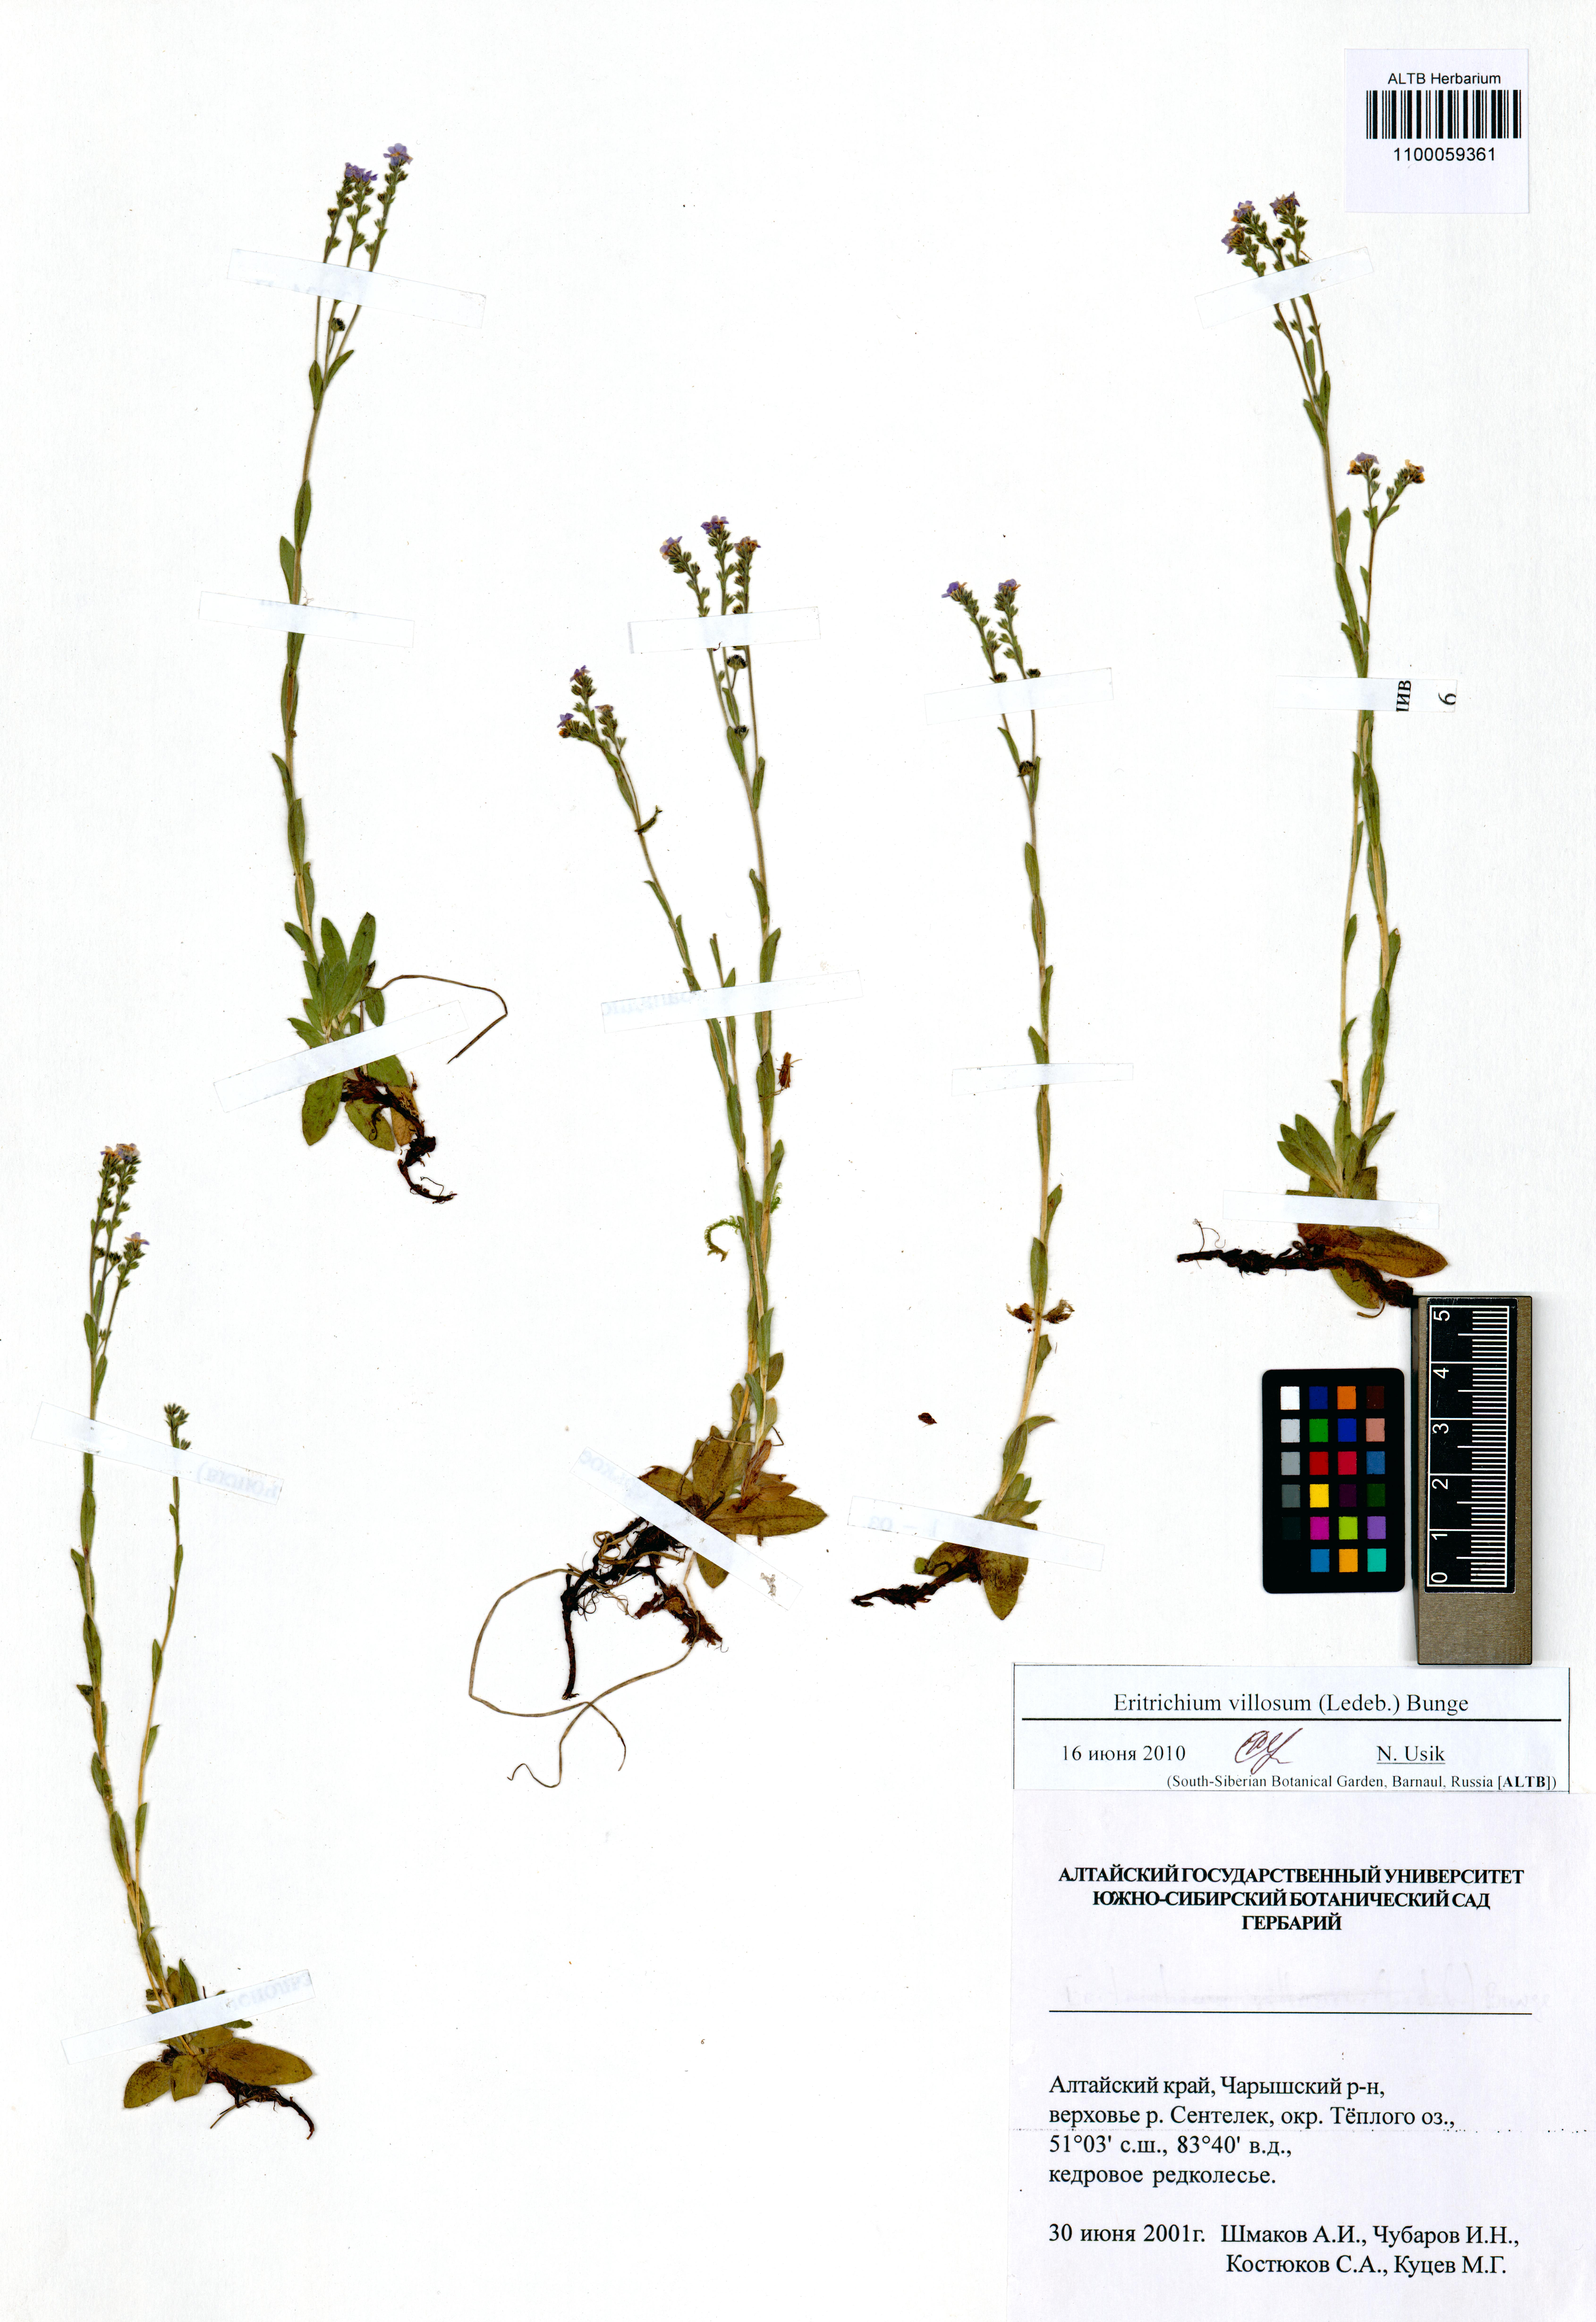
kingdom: Plantae
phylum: Tracheophyta
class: Magnoliopsida
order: Boraginales
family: Boraginaceae
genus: Eritrichium
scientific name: Eritrichium villosum
